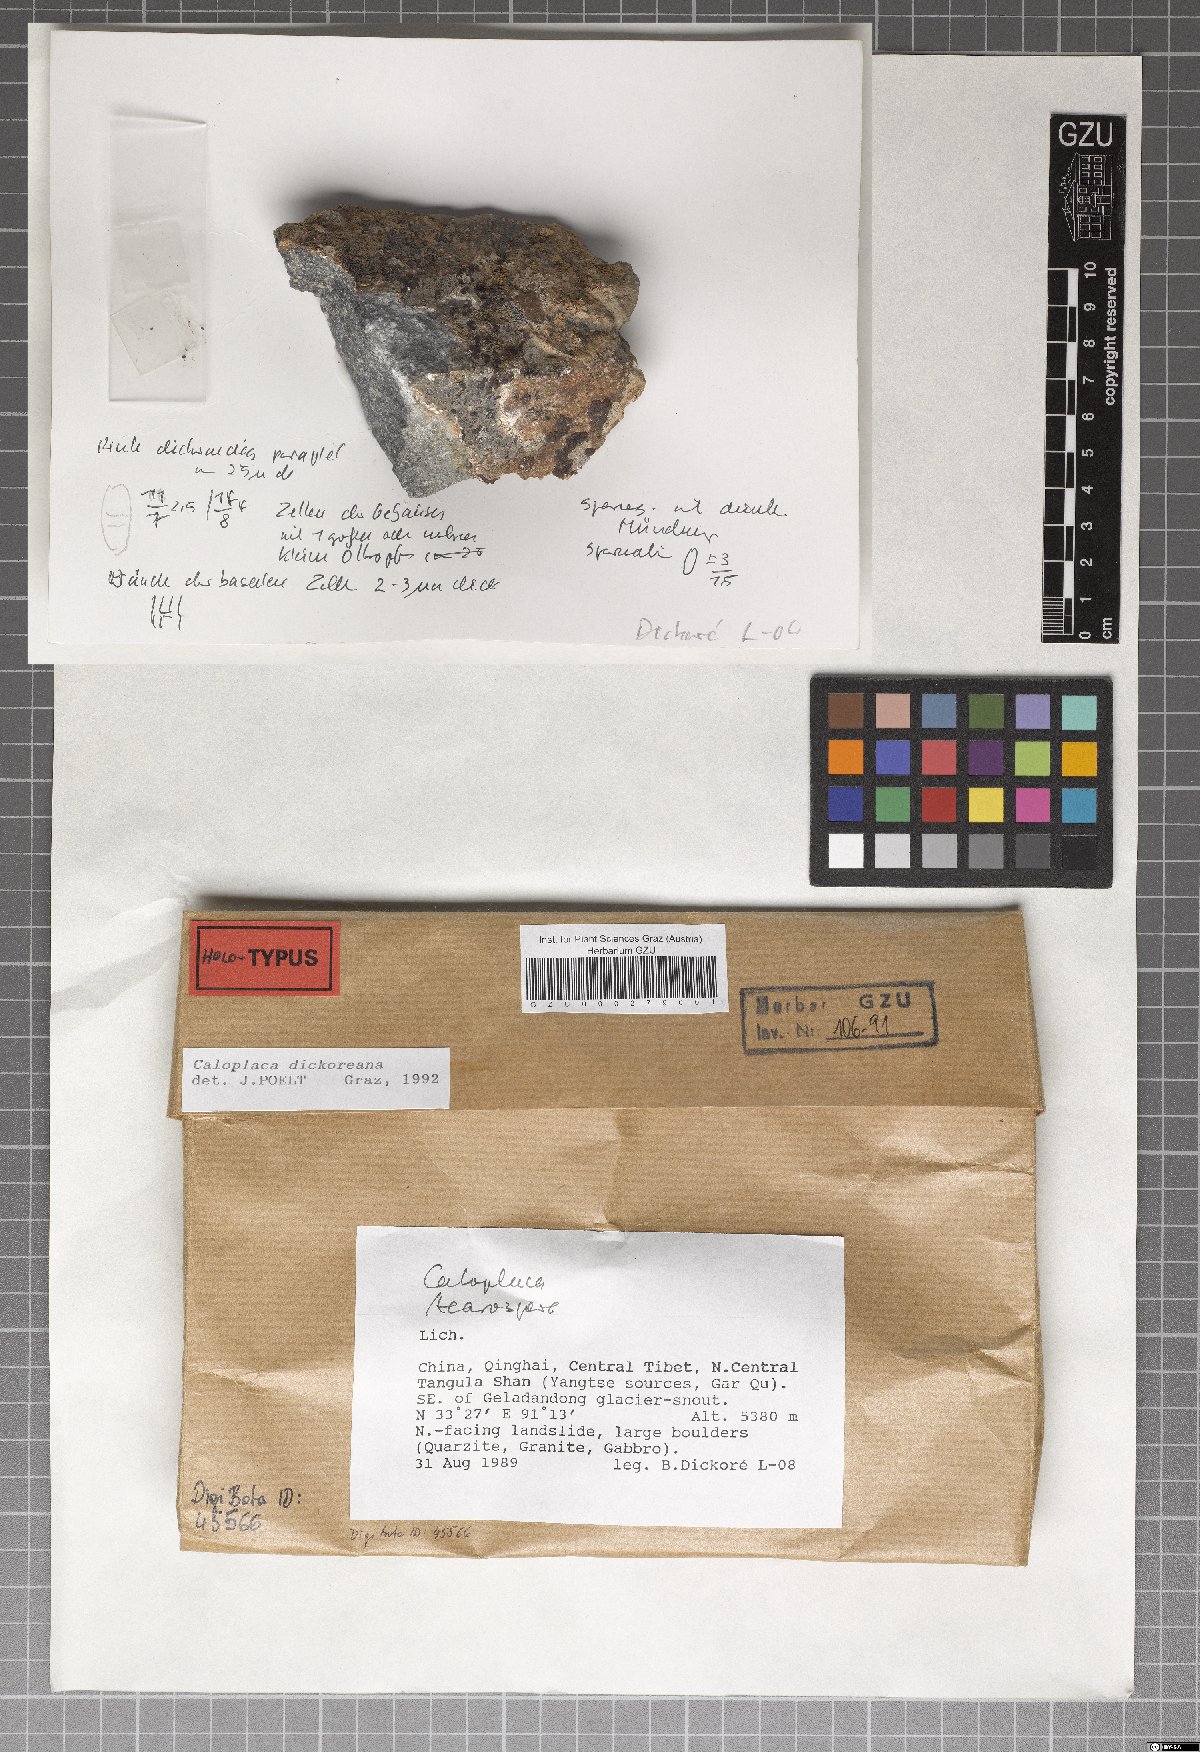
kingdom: Fungi
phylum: Ascomycota
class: Lecanoromycetes
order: Teloschistales
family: Teloschistaceae
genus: Caloplaca
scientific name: Caloplaca
